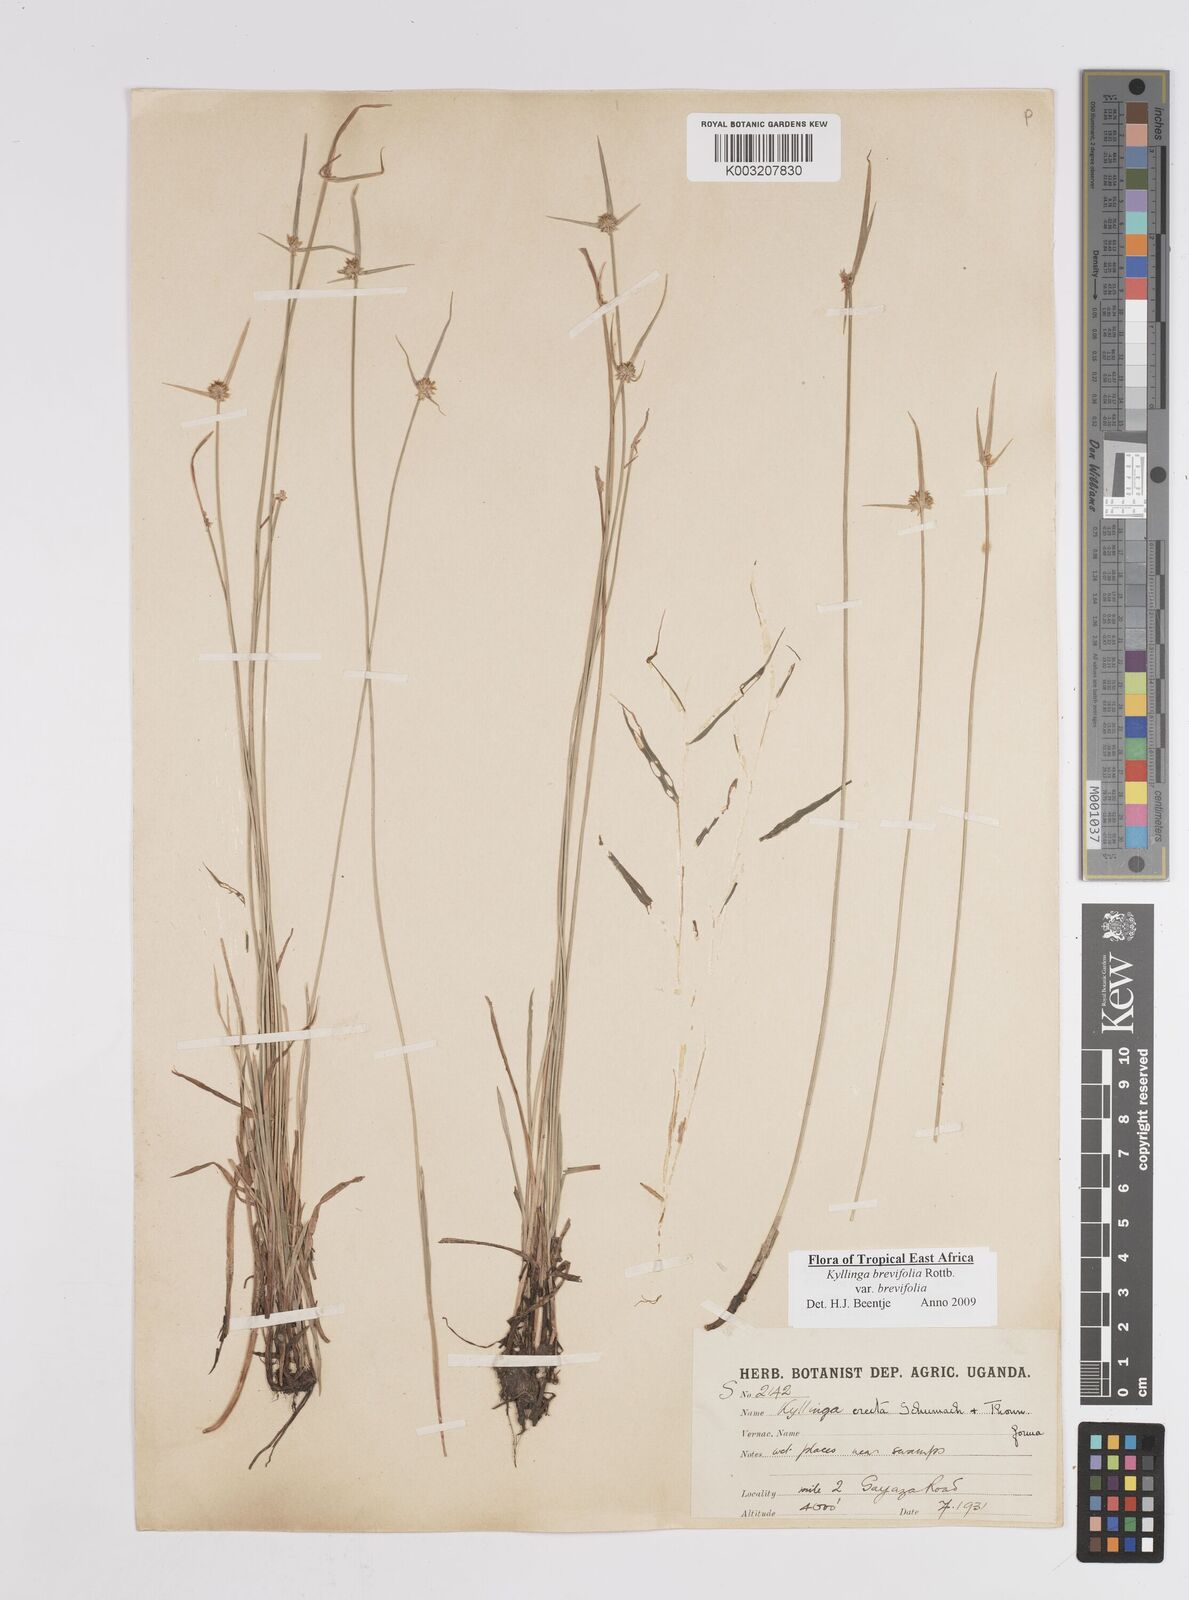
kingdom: Plantae
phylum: Tracheophyta
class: Liliopsida
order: Poales
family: Cyperaceae
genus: Cyperus
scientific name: Cyperus erectus
